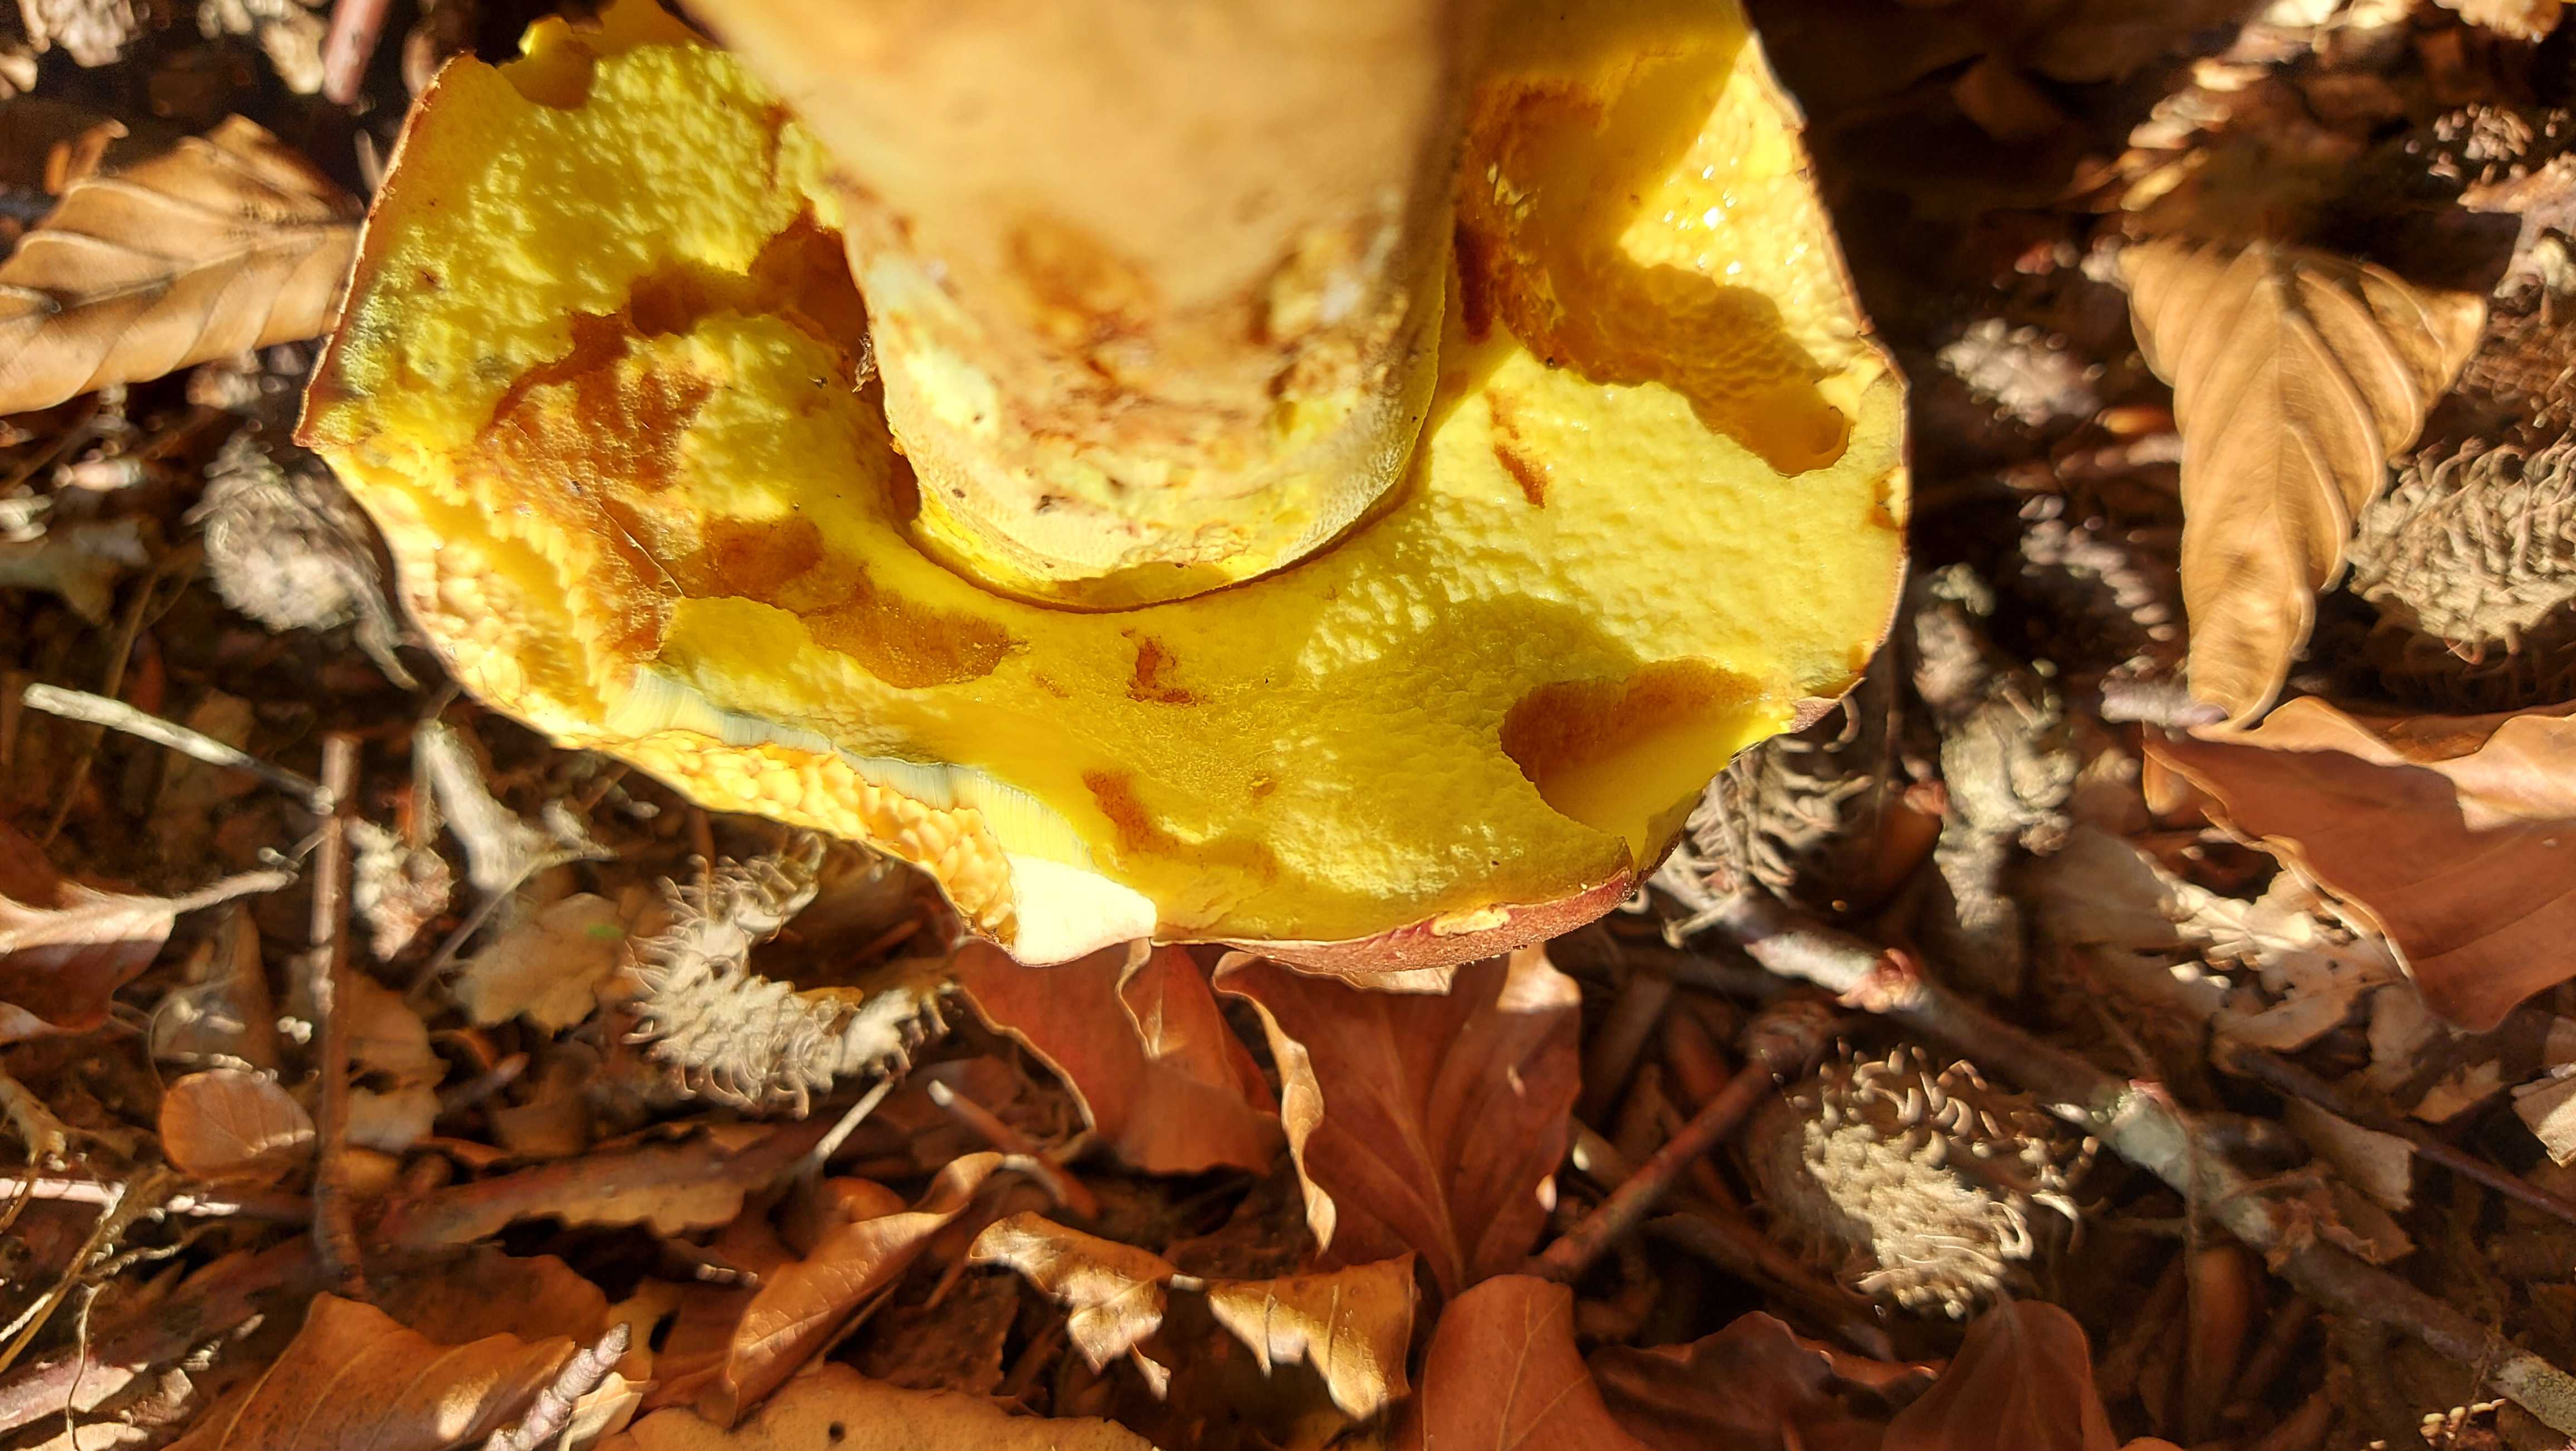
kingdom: Fungi
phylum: Basidiomycota
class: Agaricomycetes
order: Boletales
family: Boletaceae
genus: Butyriboletus
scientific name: Butyriboletus appendiculatus
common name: tenstokket rørhat
